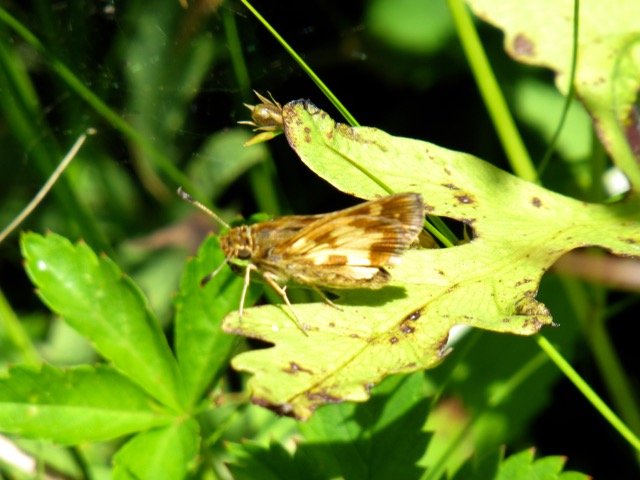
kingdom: Animalia
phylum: Arthropoda
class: Insecta
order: Lepidoptera
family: Hesperiidae
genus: Polites
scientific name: Polites coras
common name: Peck's Skipper
